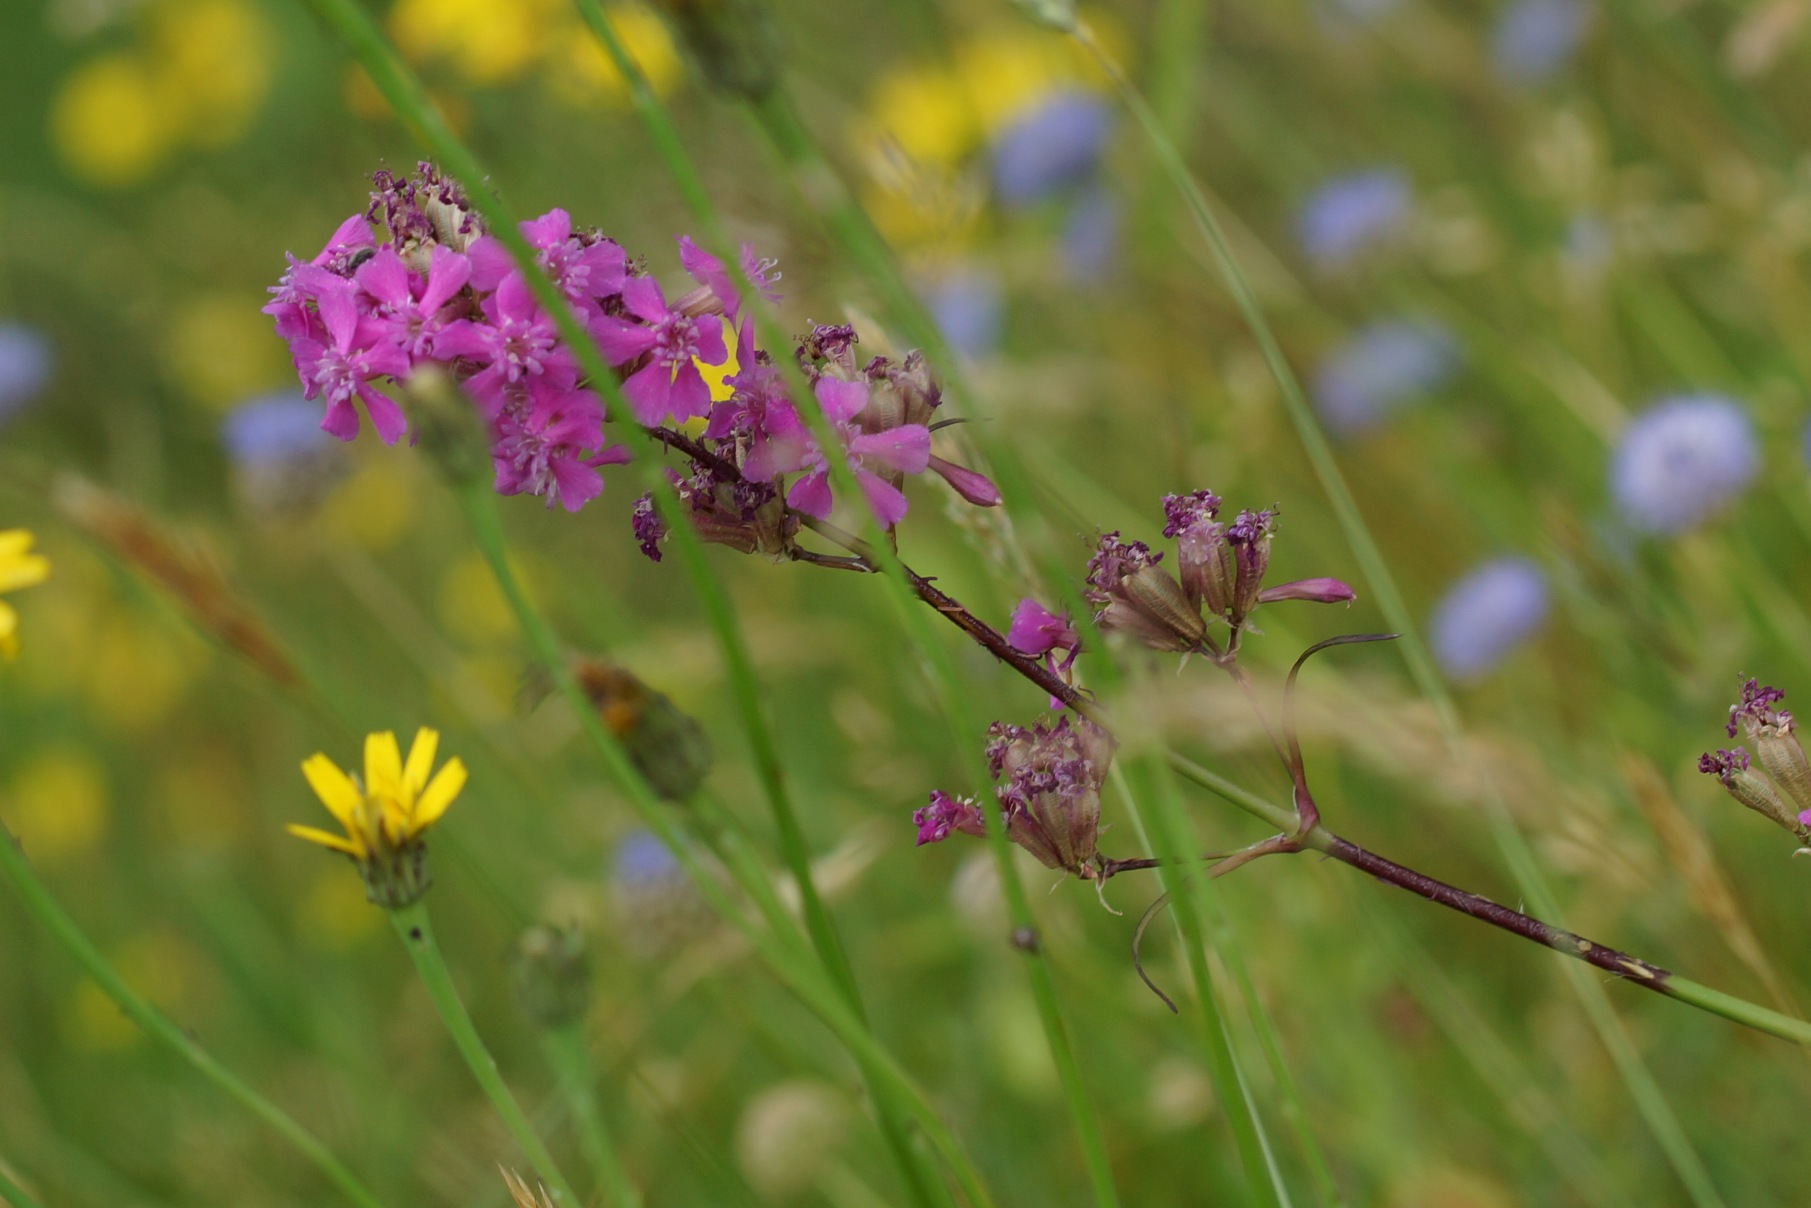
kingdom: Plantae
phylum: Tracheophyta
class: Magnoliopsida
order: Caryophyllales
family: Caryophyllaceae
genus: Viscaria
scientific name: Viscaria vulgaris
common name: Tjærenellike
